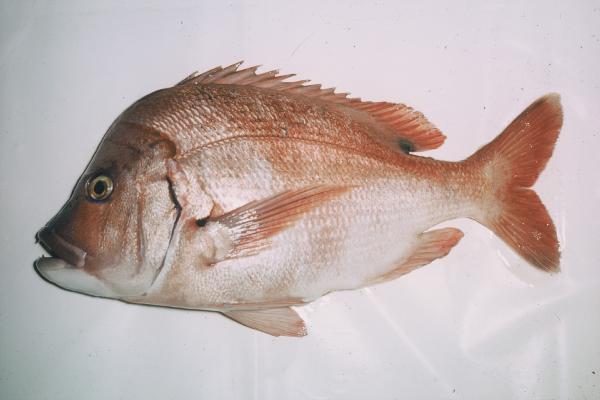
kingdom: Animalia
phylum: Chordata
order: Perciformes
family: Sparidae
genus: Chrysoblephus
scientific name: Chrysoblephus cristiceps
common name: Dageraad
